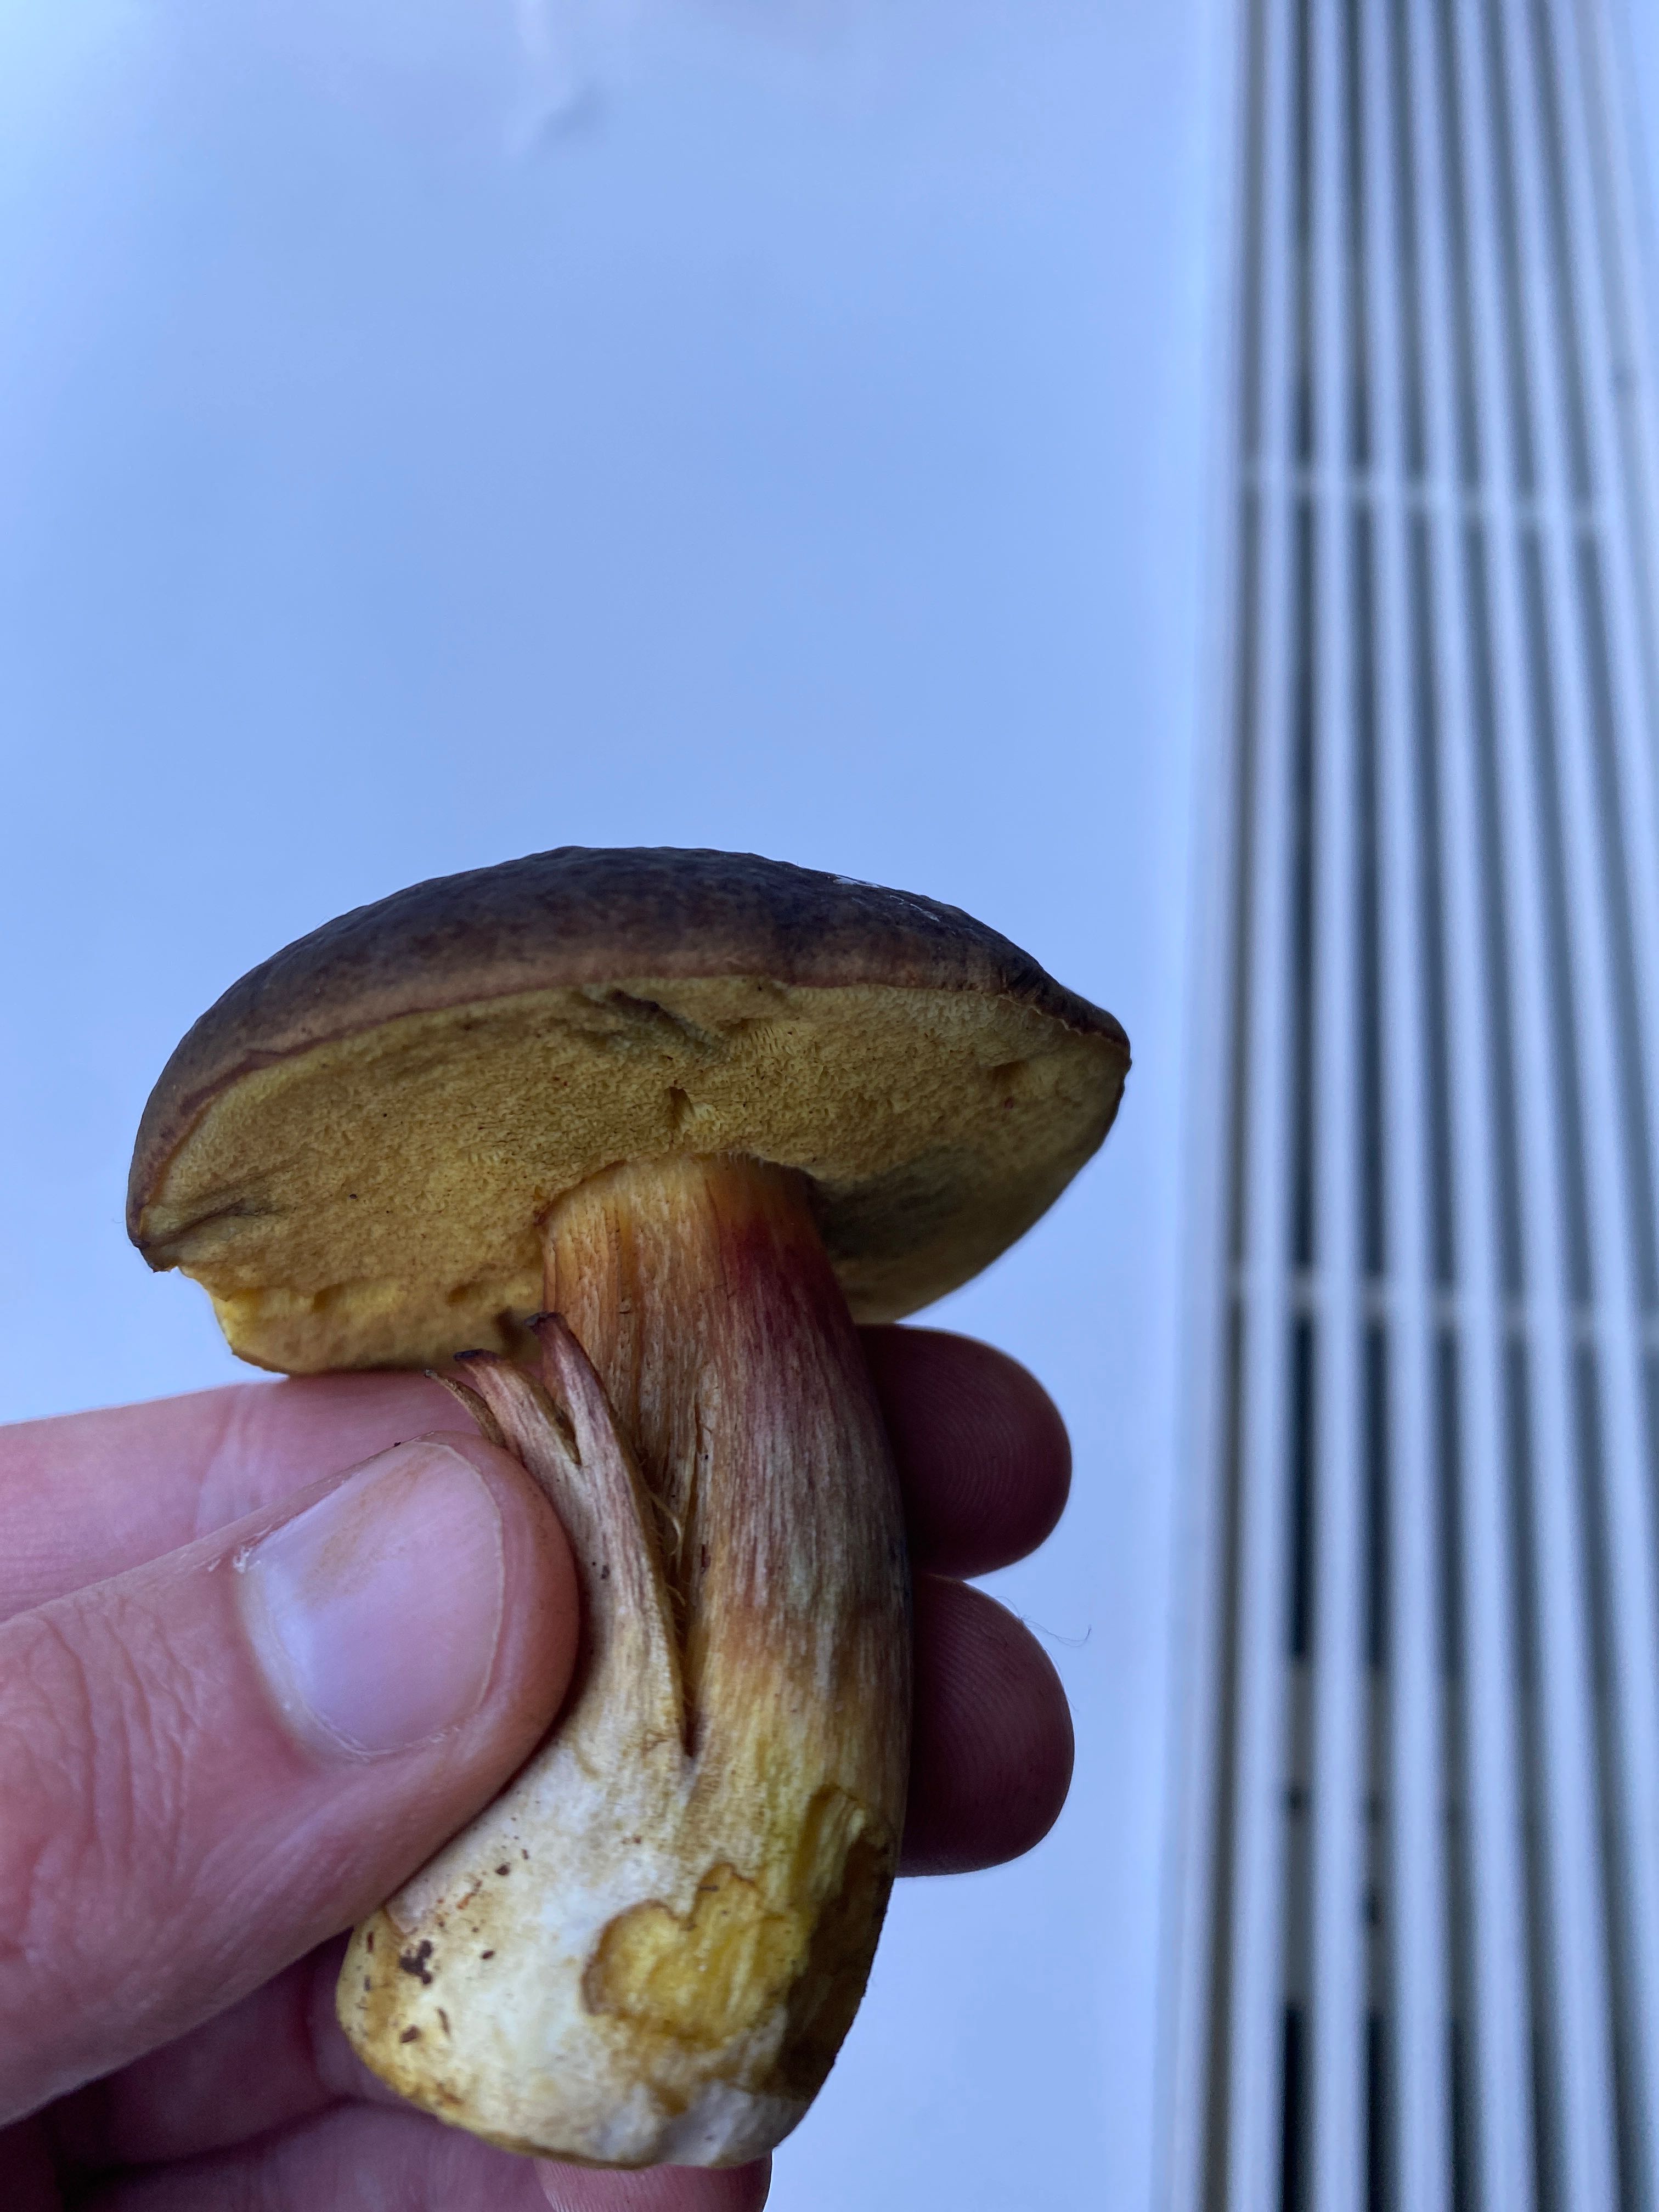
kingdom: Fungi
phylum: Basidiomycota
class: Agaricomycetes
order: Boletales
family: Boletaceae
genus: Imleria
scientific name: Imleria badia
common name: brunstokket rørhat
